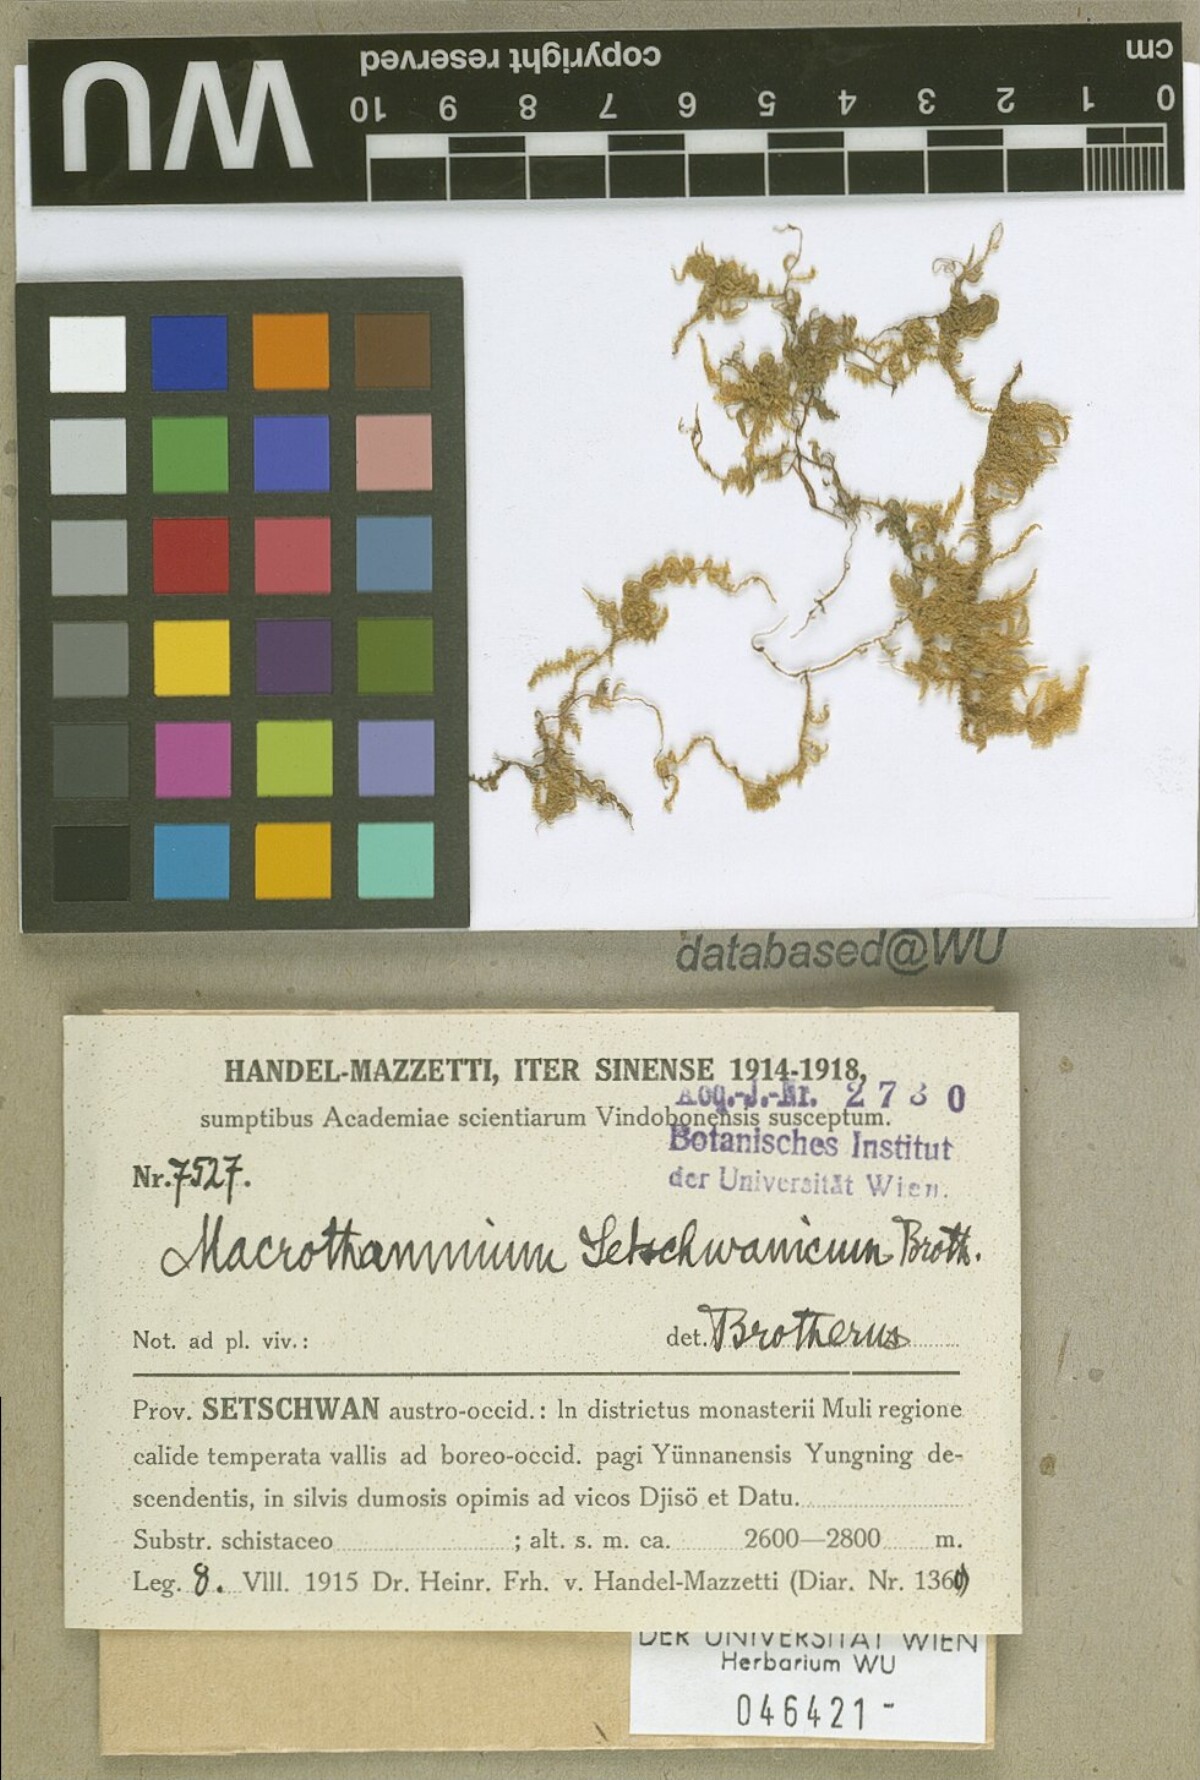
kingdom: Plantae
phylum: Bryophyta
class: Bryopsida
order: Hypnales
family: Hypnaceae
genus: Gollania
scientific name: Gollania setschwanica
